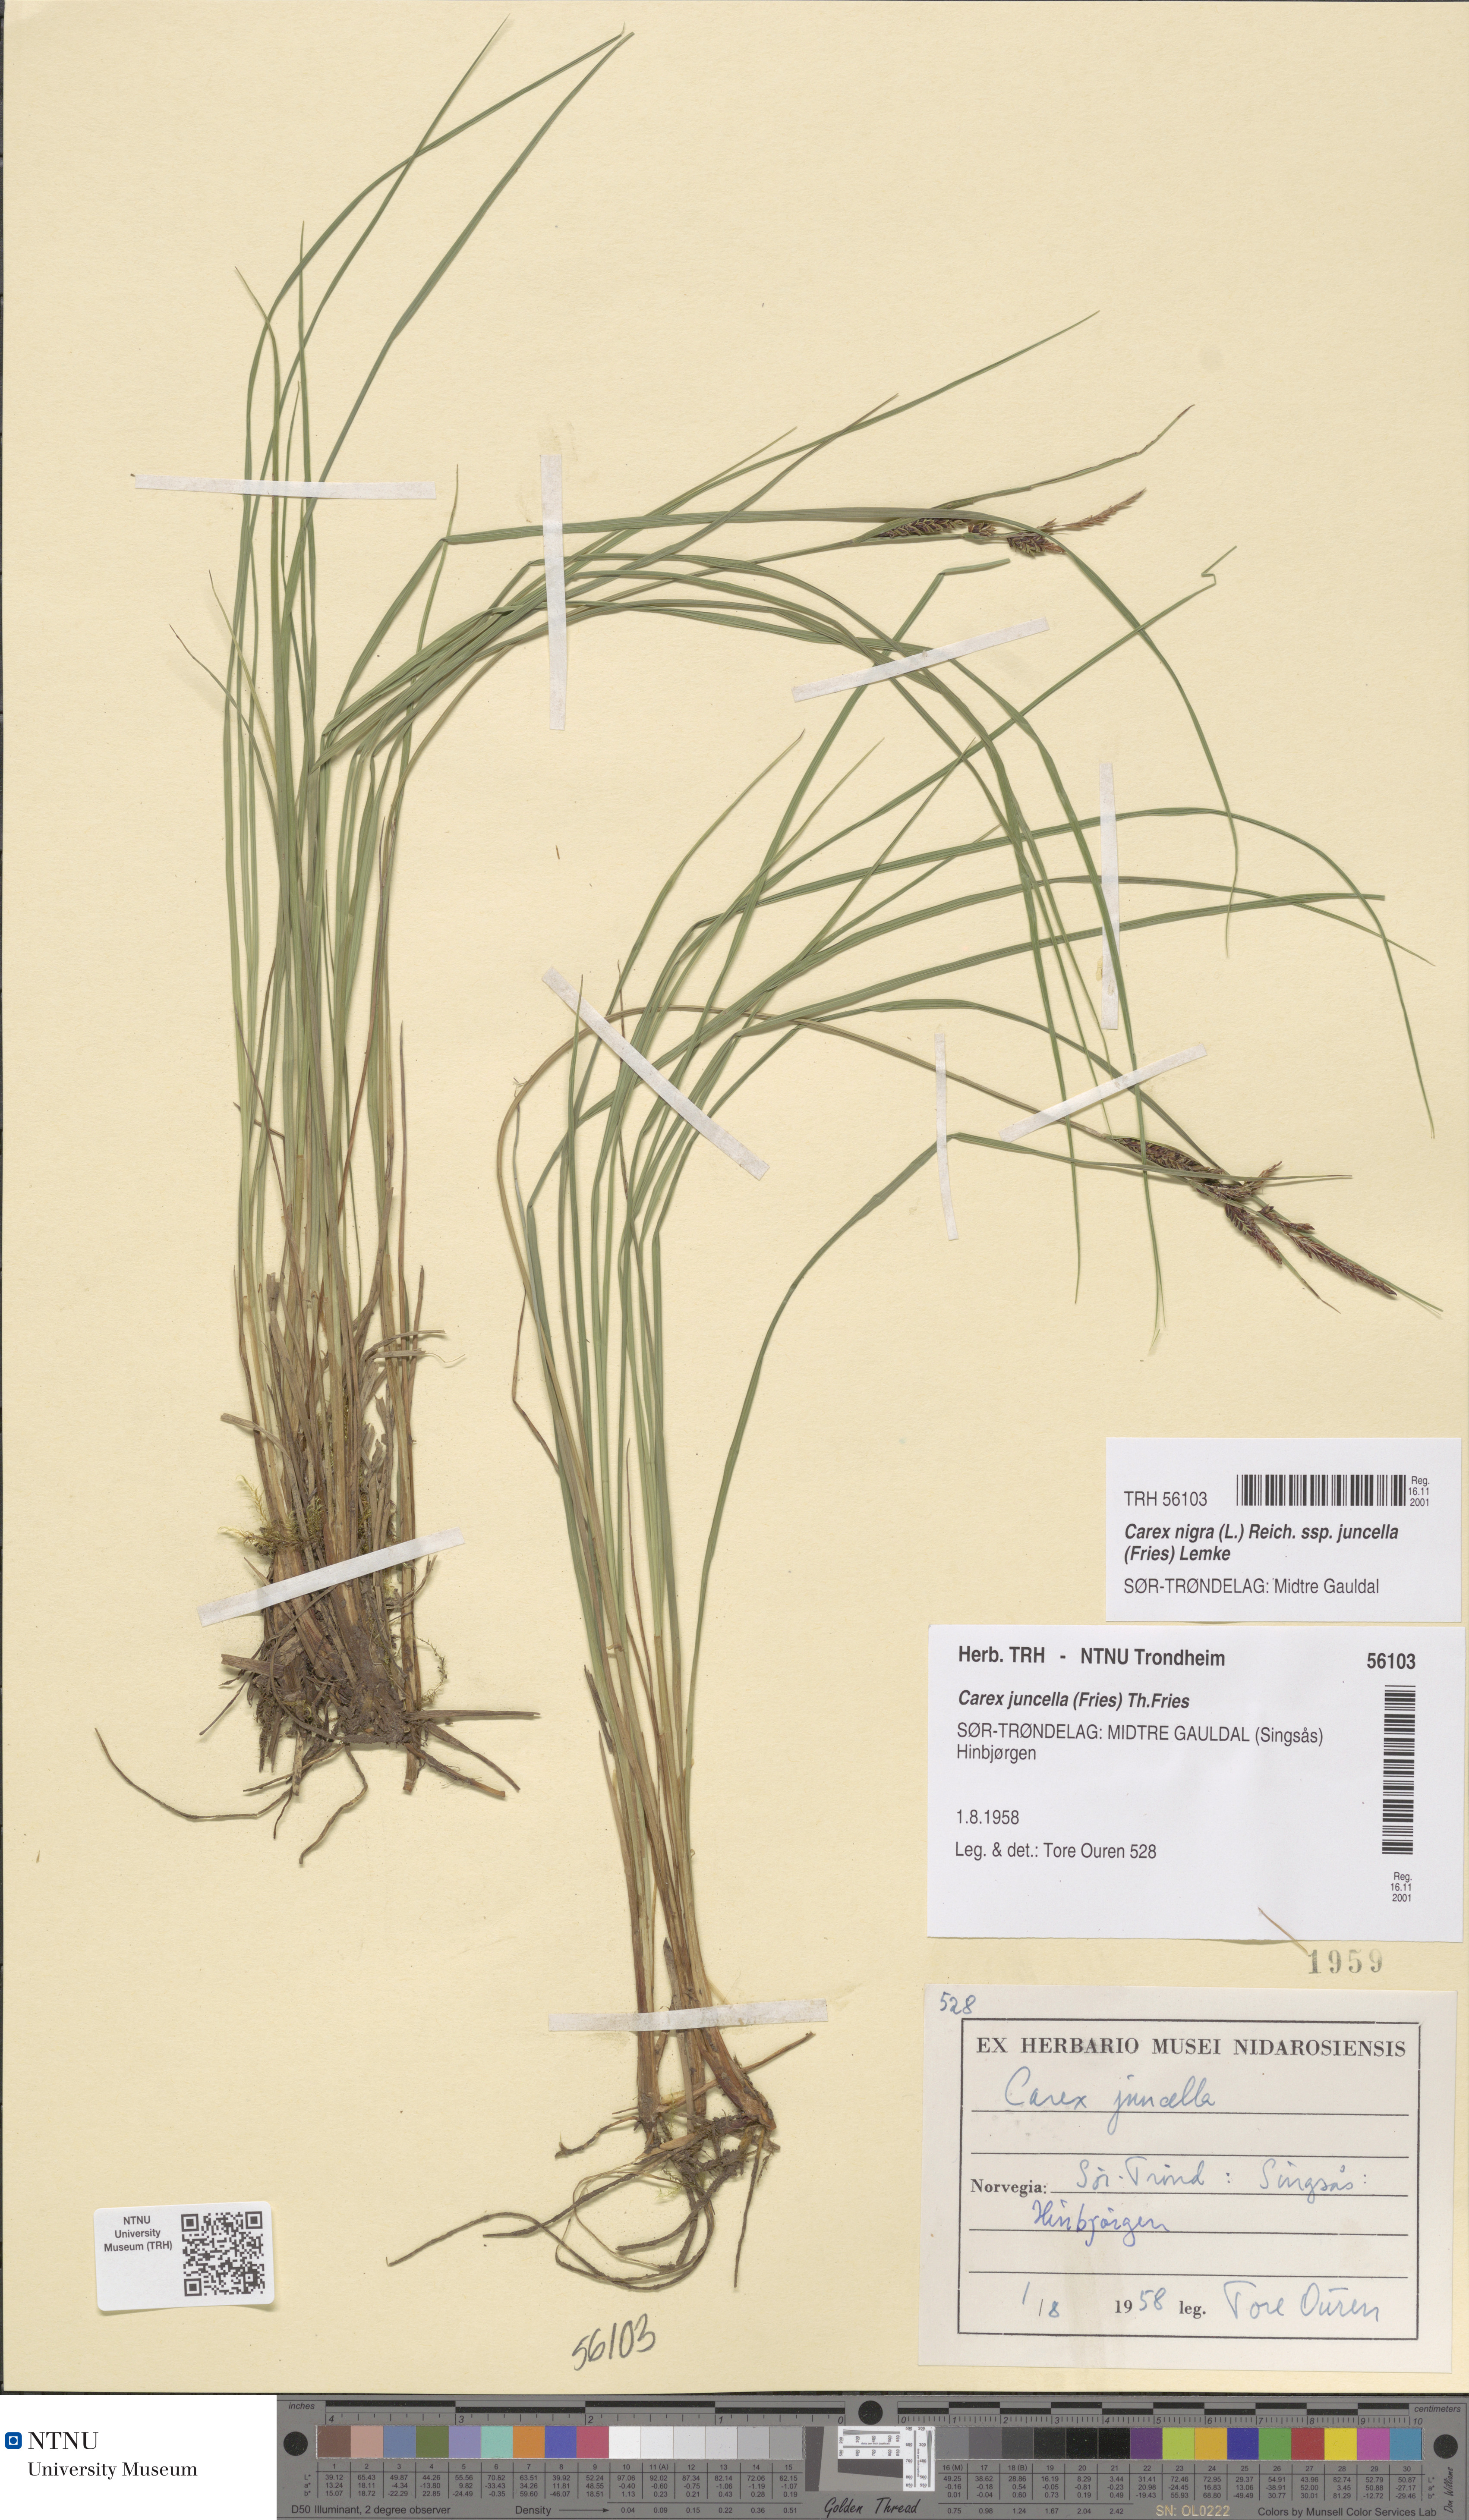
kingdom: Plantae
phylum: Tracheophyta
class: Liliopsida
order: Poales
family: Cyperaceae
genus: Carex
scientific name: Carex nigra
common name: Common sedge
